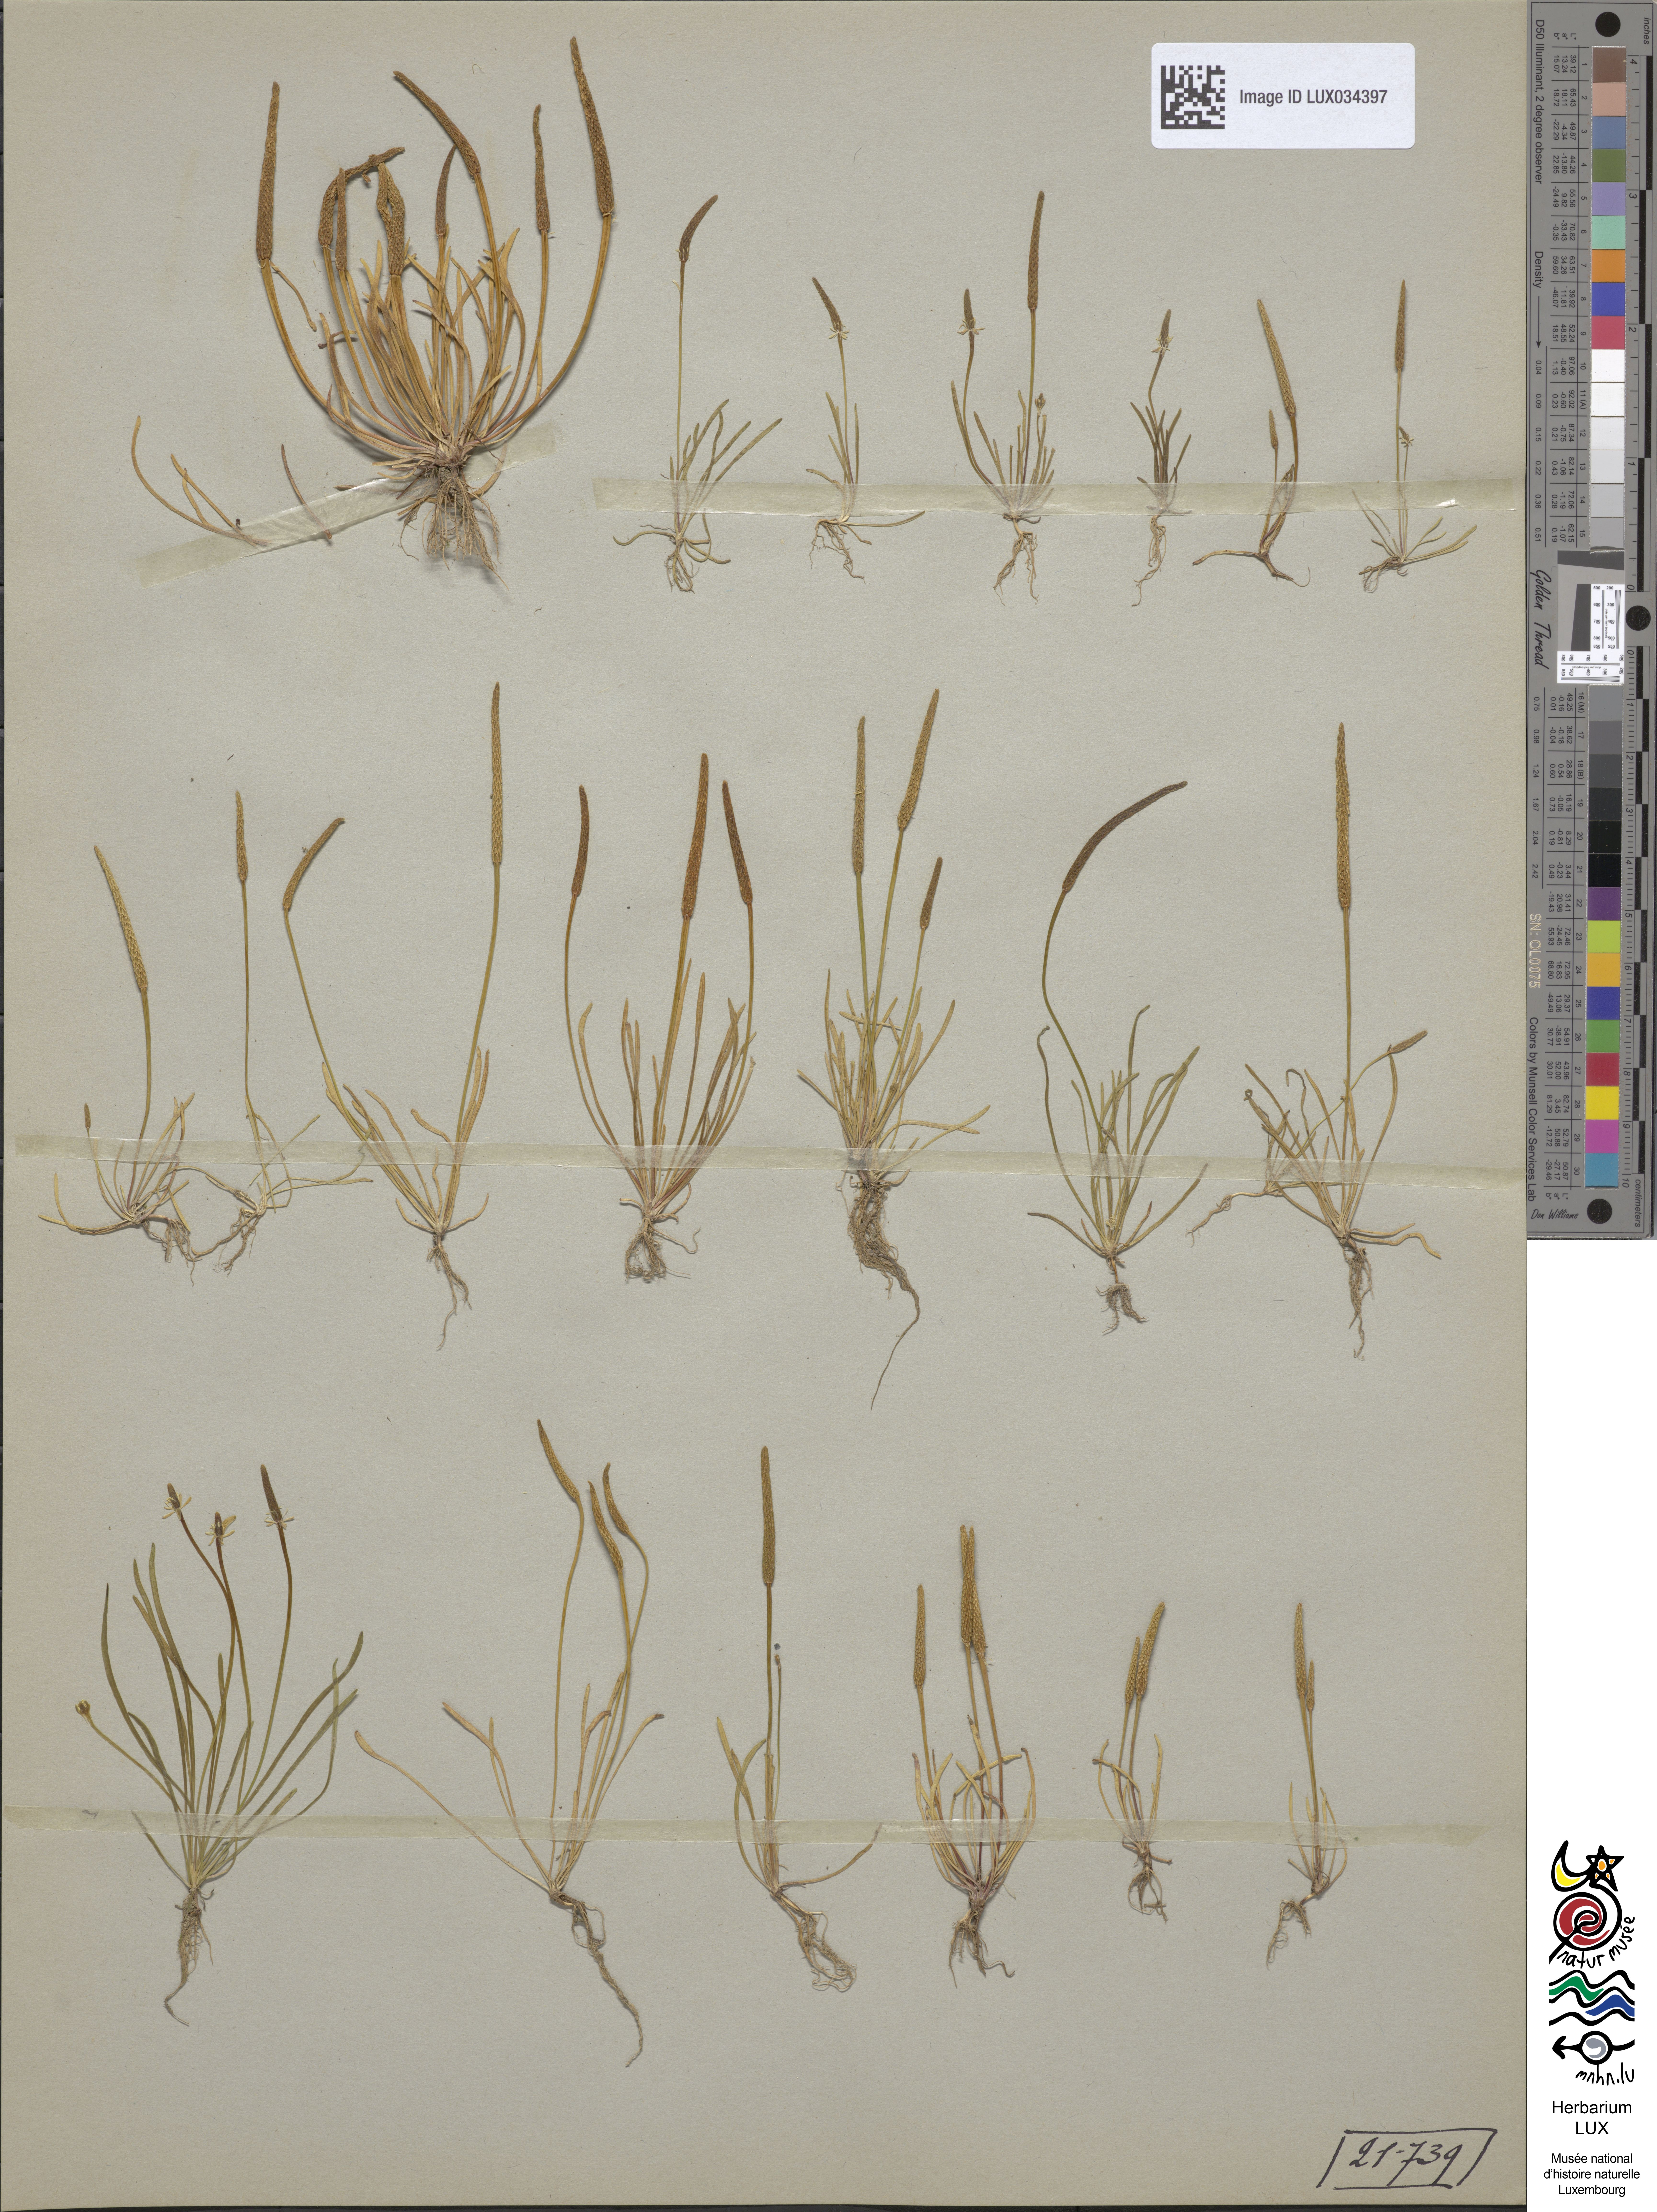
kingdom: Plantae
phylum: Tracheophyta
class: Magnoliopsida
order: Ranunculales
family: Ranunculaceae
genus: Myosurus
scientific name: Myosurus minimus
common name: Mousetail
